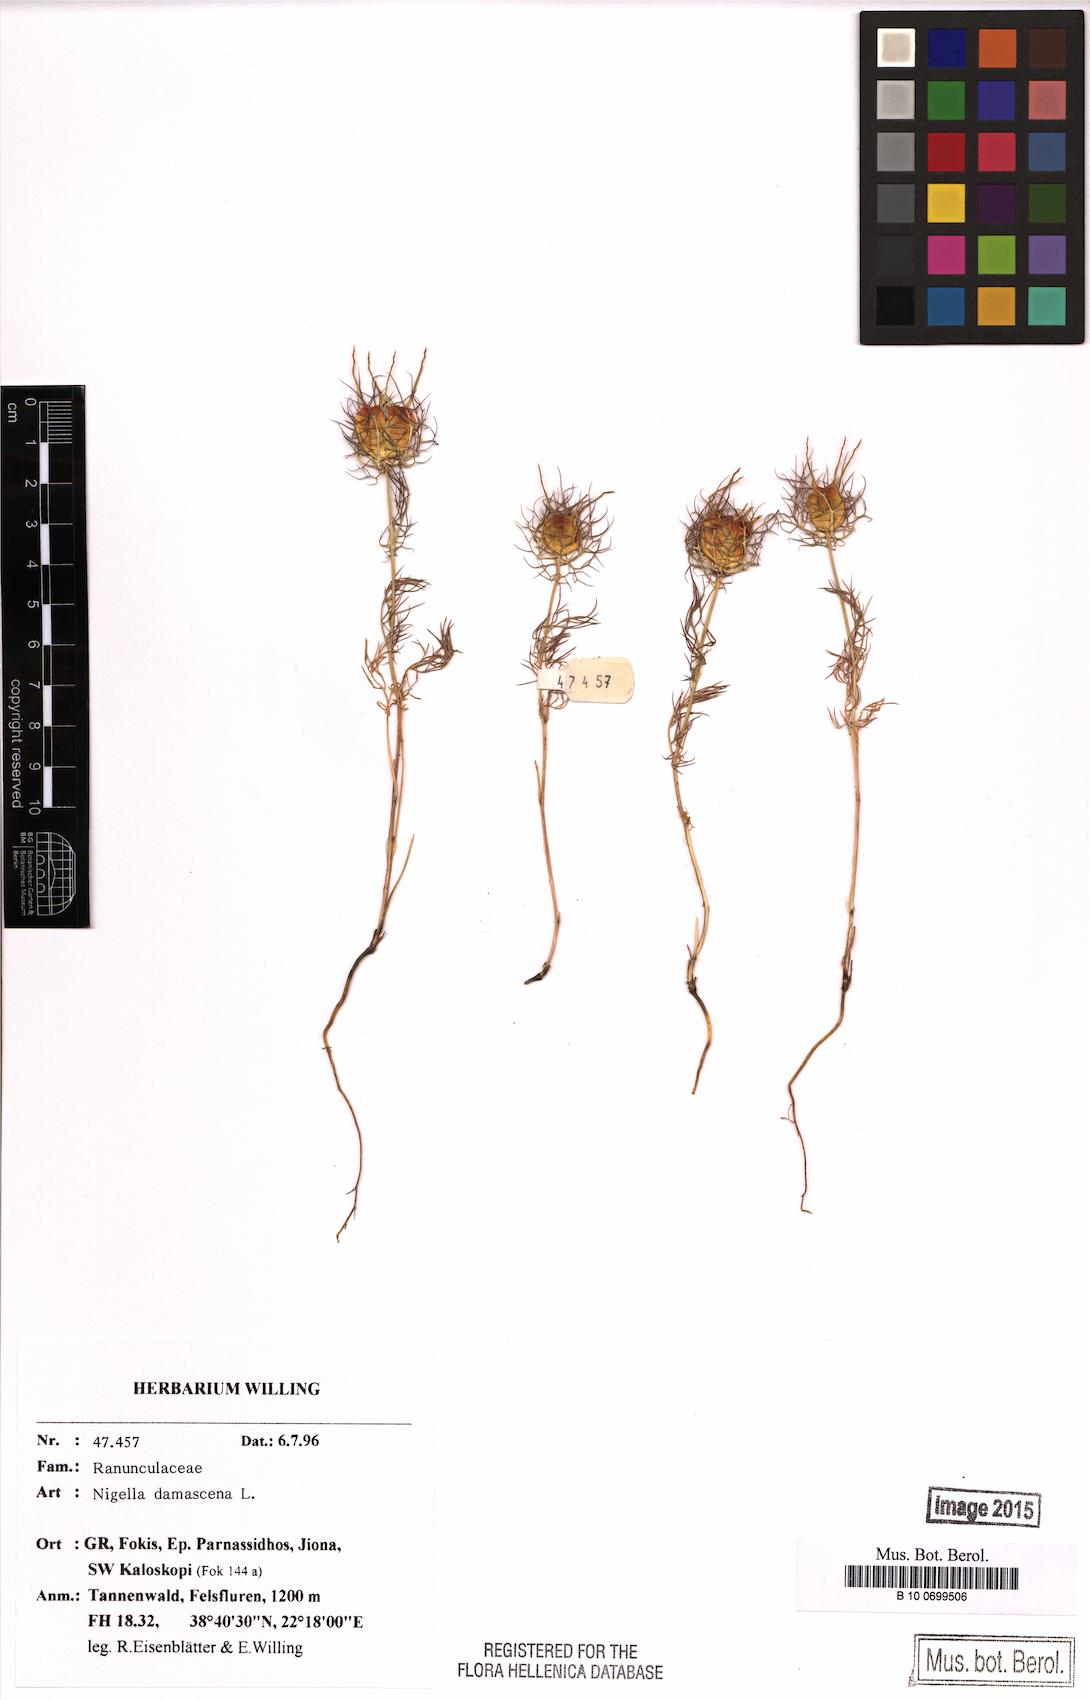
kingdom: Plantae
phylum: Tracheophyta
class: Magnoliopsida
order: Ranunculales
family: Ranunculaceae
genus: Nigella
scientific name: Nigella damascena
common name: Love-in-a-mist
